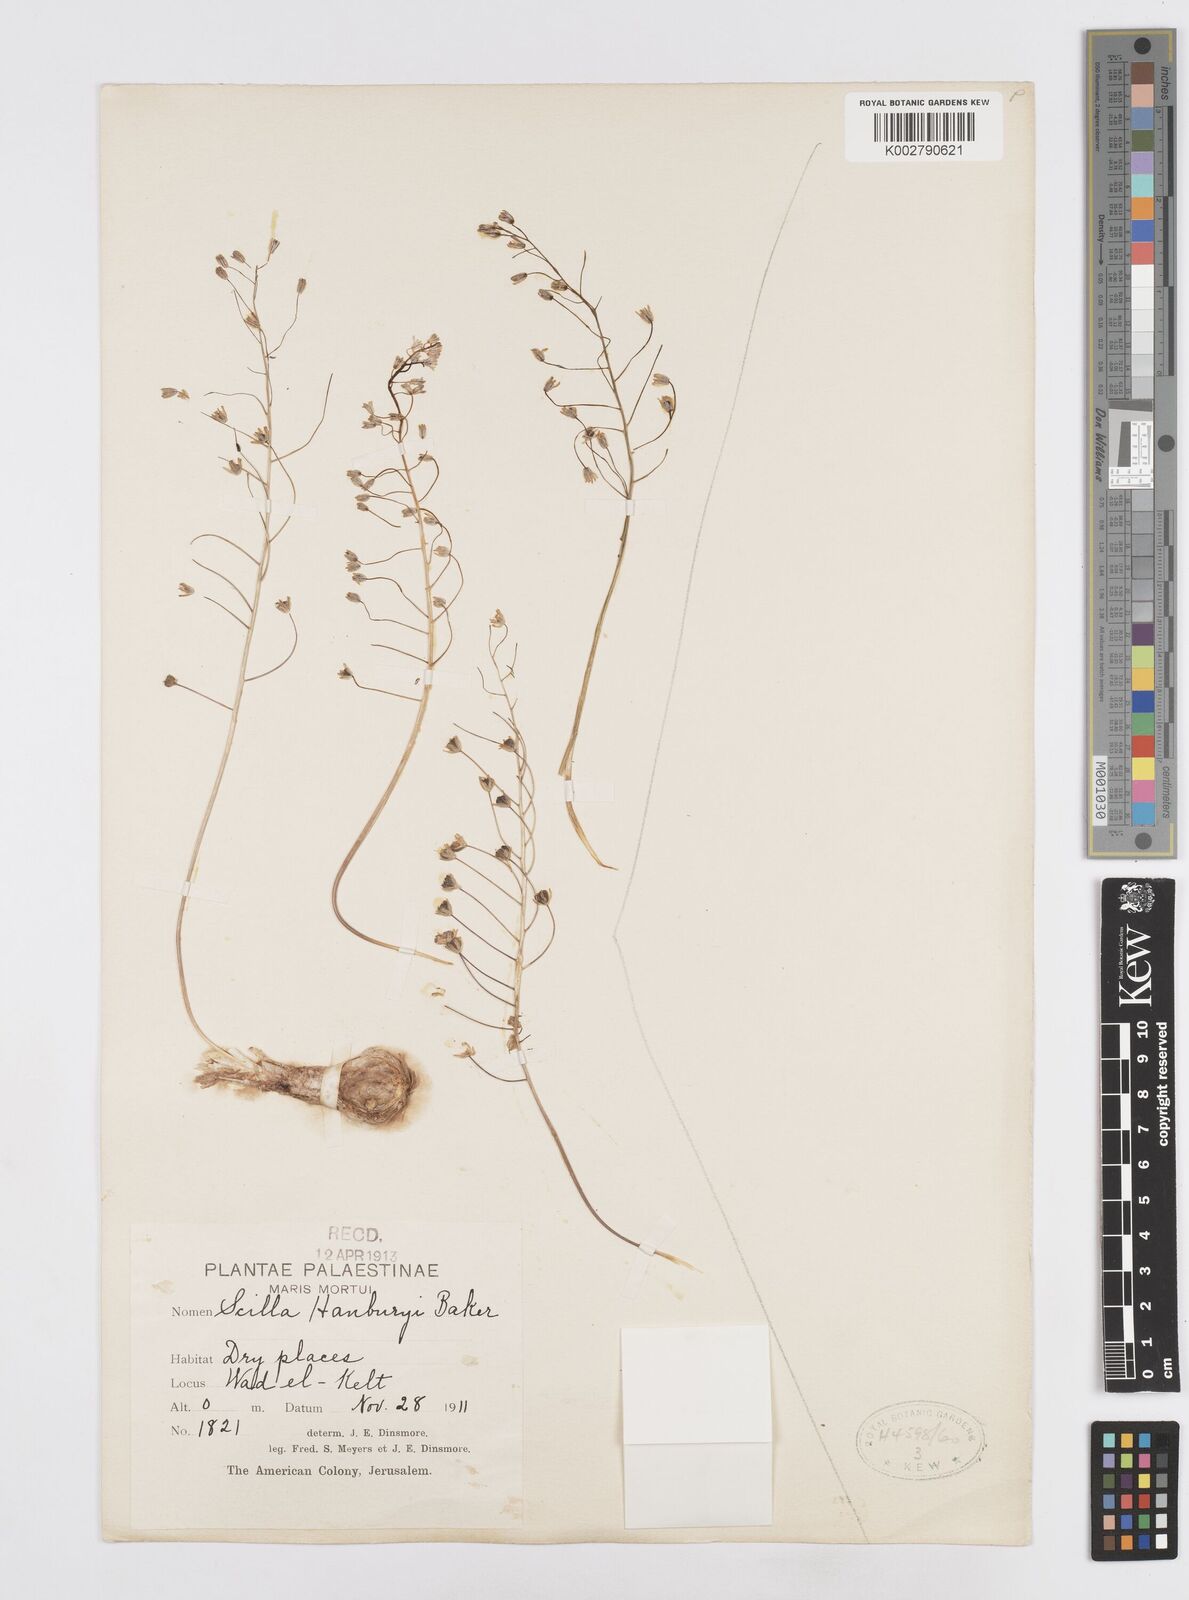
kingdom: Plantae
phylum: Tracheophyta
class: Liliopsida
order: Asparagales
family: Asparagaceae
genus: Prospero
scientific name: Prospero hanburyi
